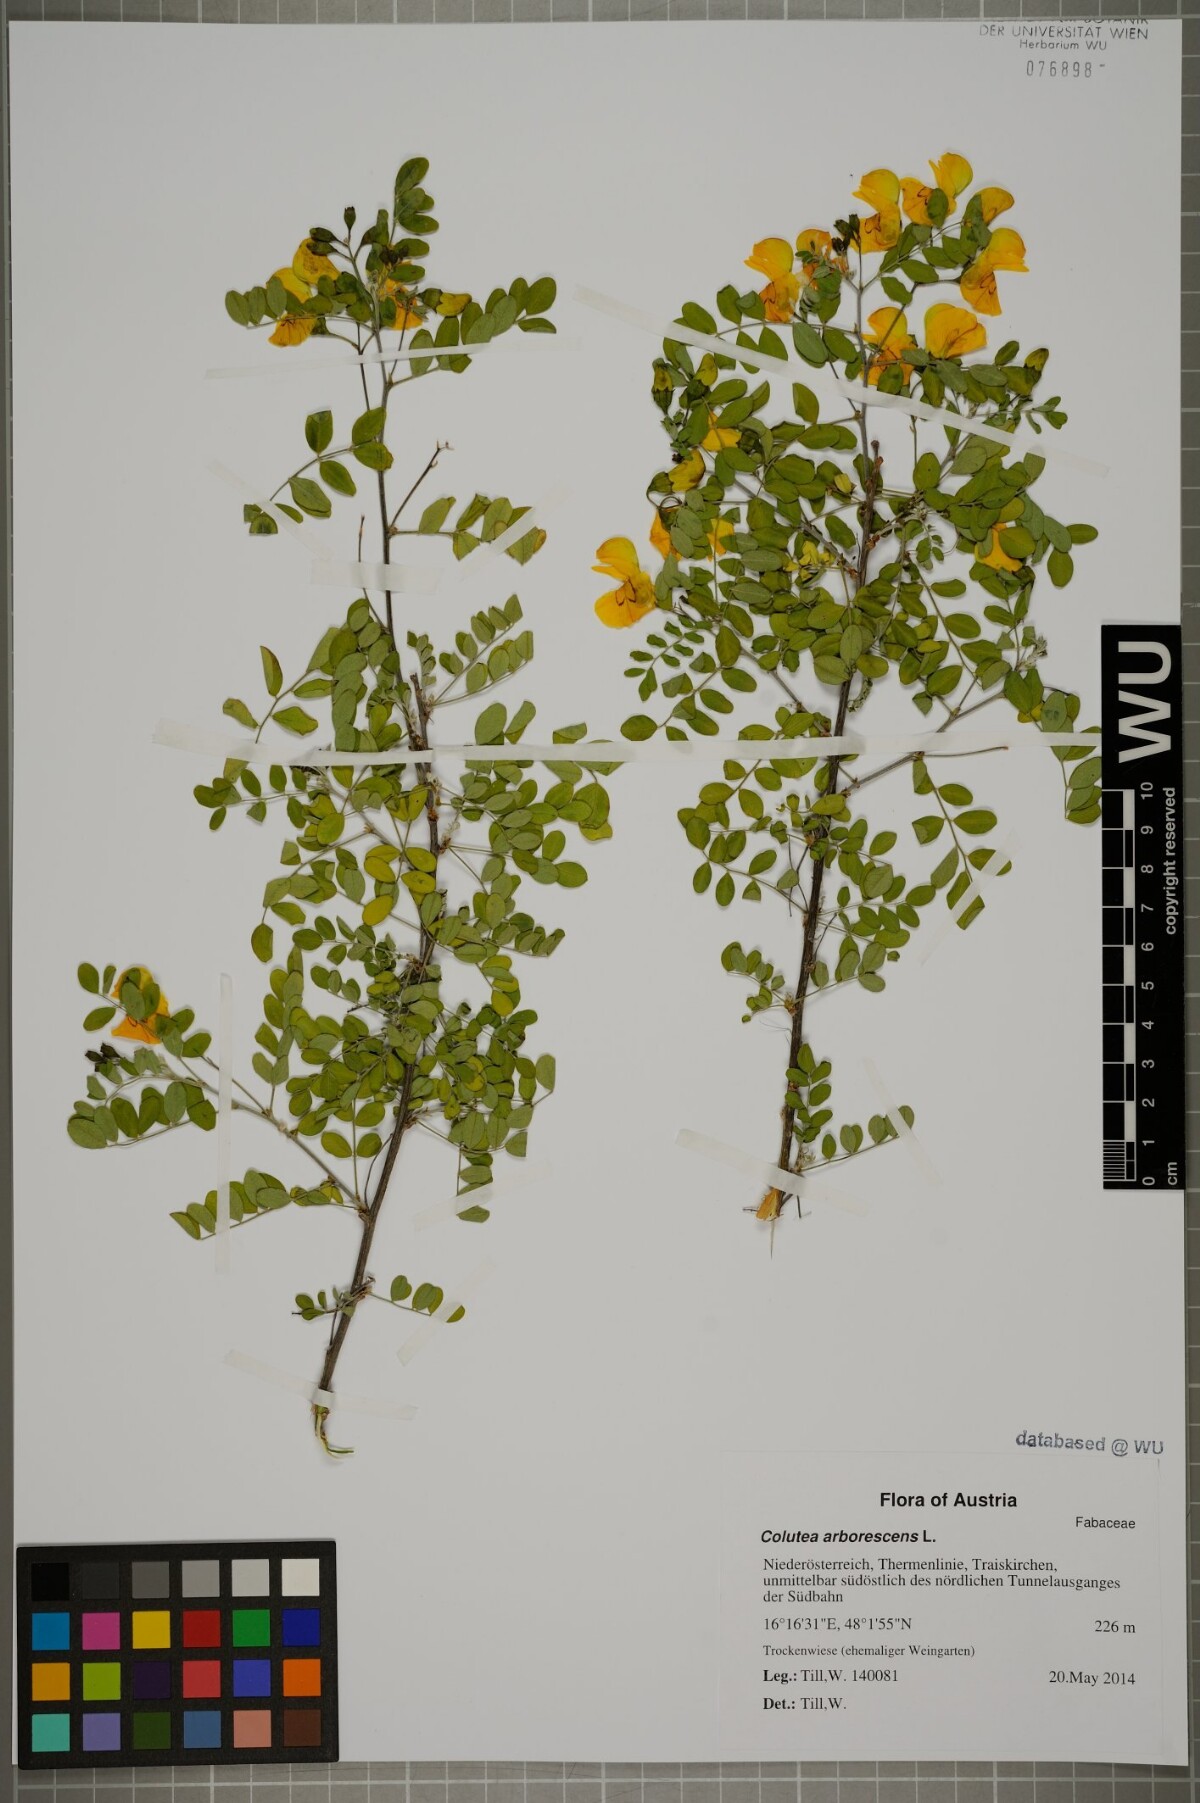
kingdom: Plantae
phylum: Tracheophyta
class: Magnoliopsida
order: Fabales
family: Fabaceae
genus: Colutea
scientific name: Colutea arborescens
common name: Bladder-senna
